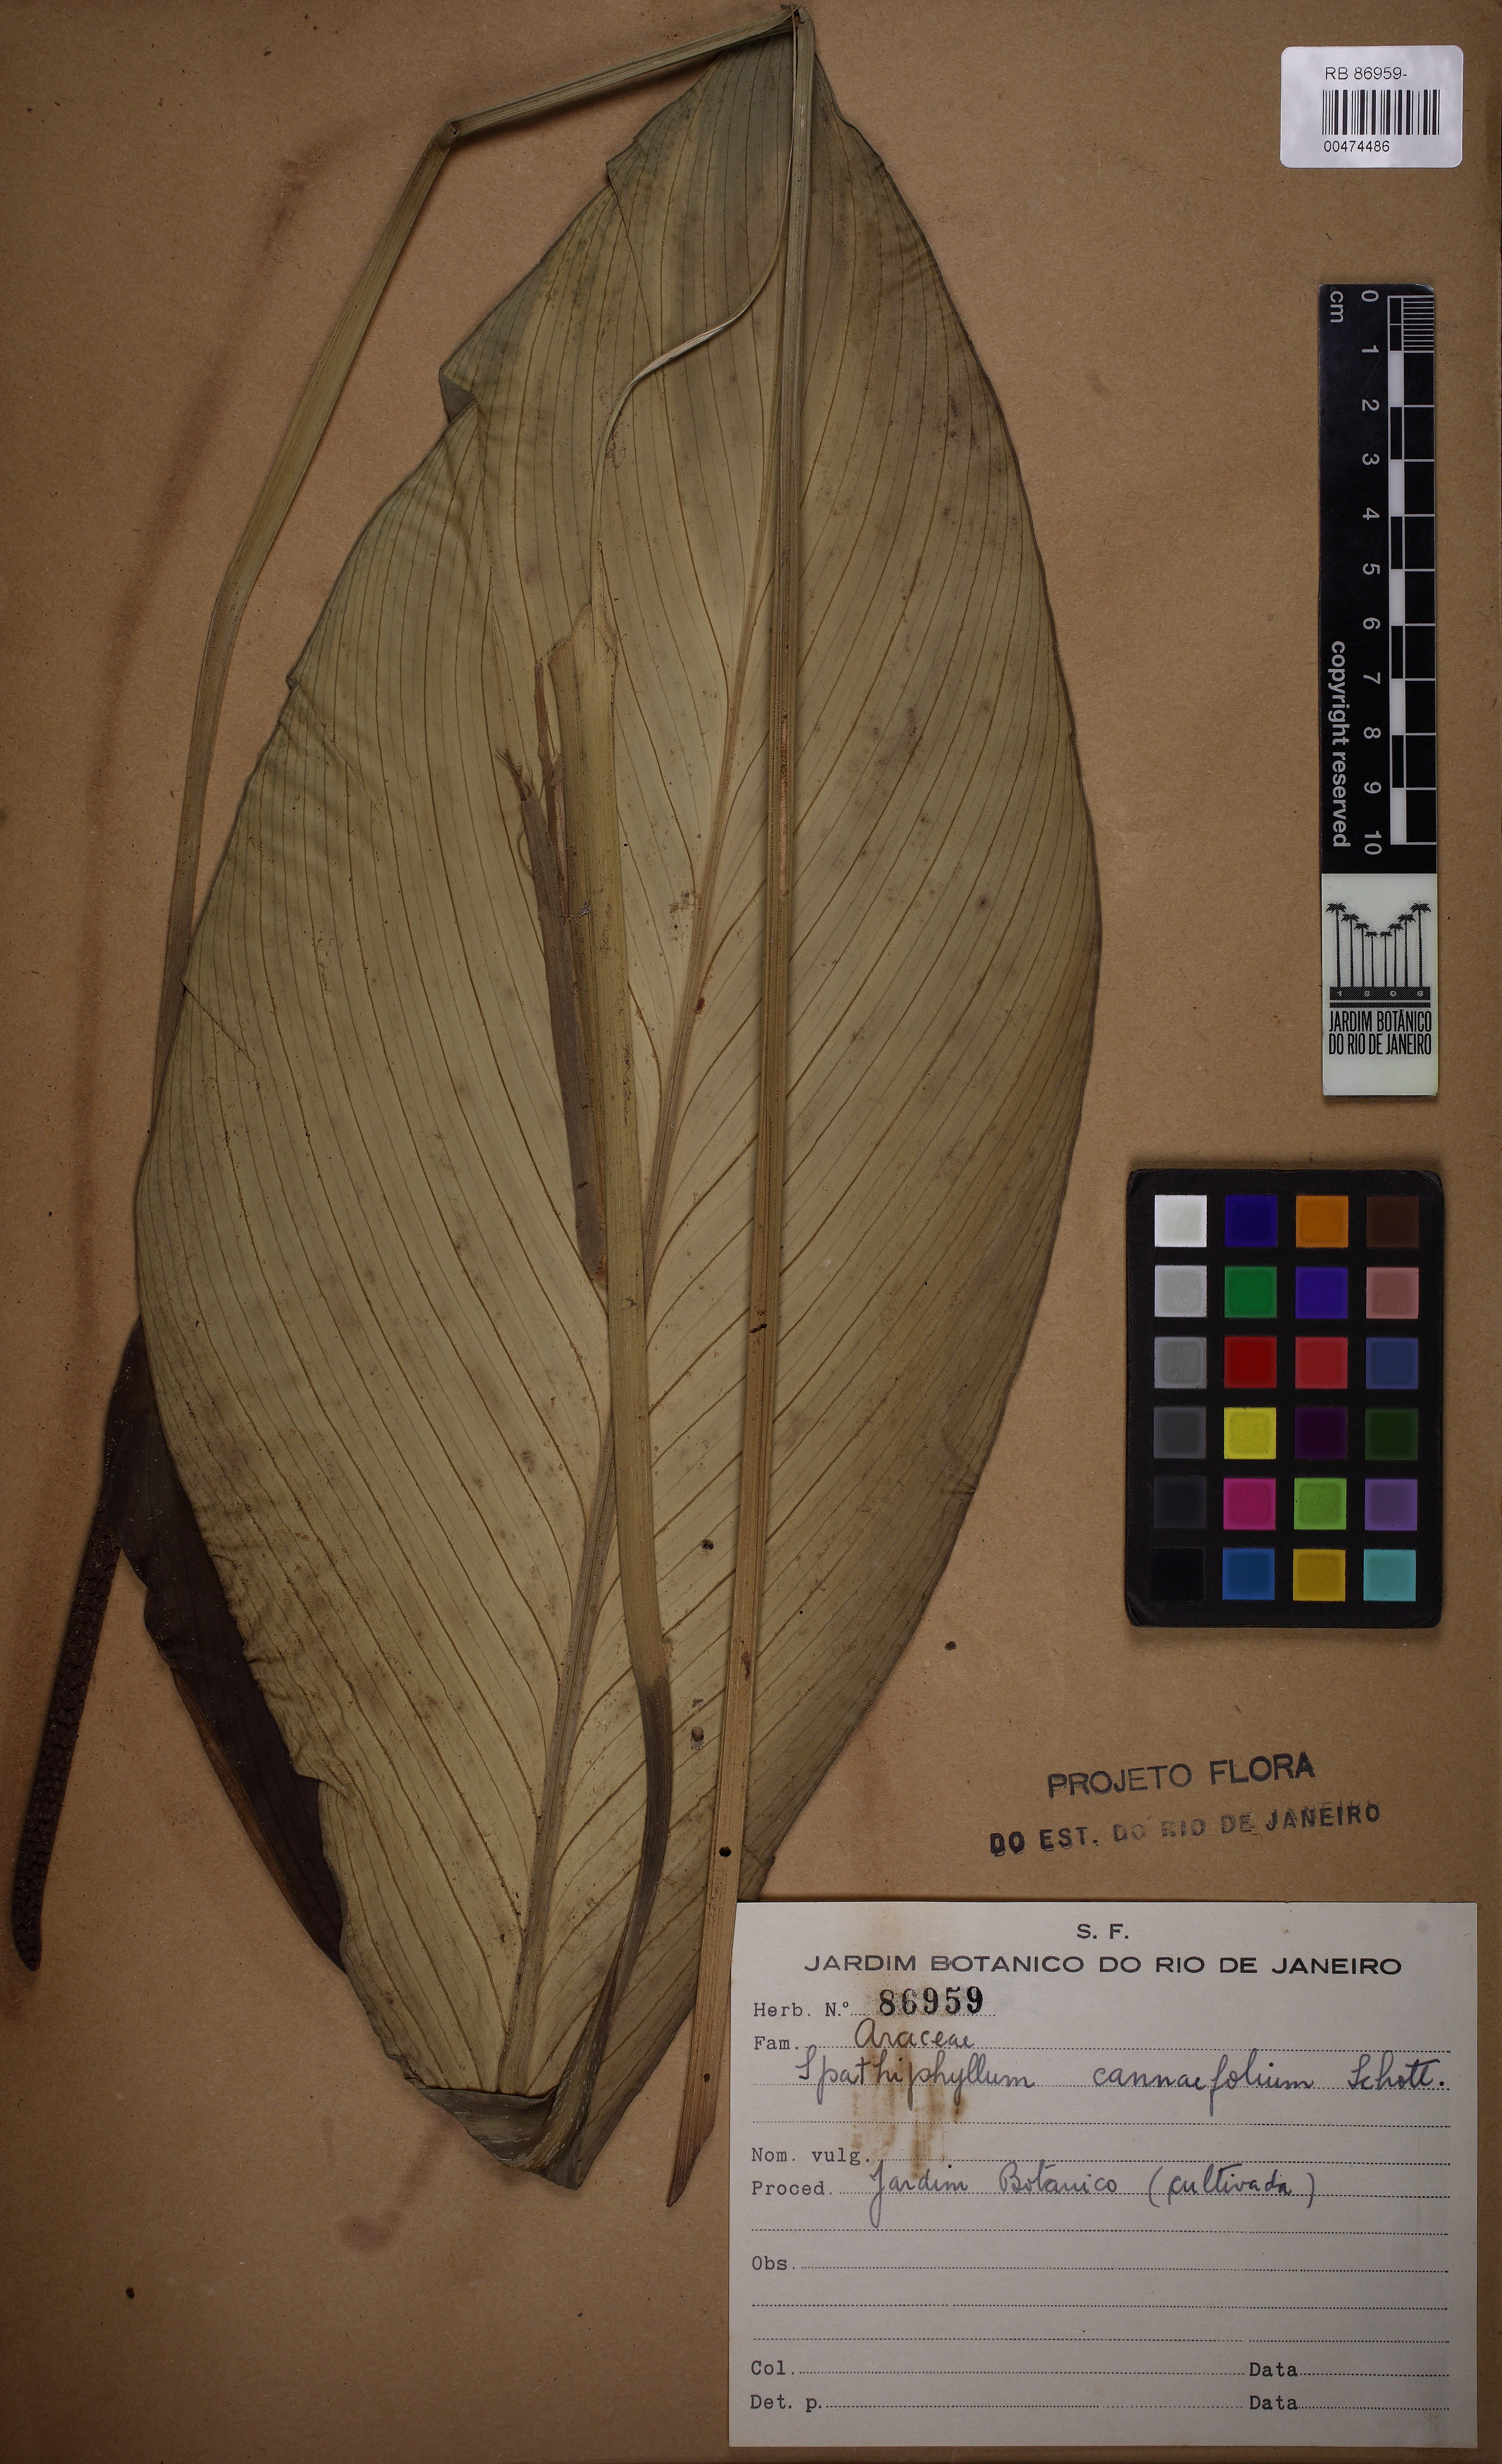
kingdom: Plantae
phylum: Tracheophyta
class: Liliopsida
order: Alismatales
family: Araceae
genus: Spathiphyllum
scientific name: Spathiphyllum cannifolium
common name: Spatheflower
